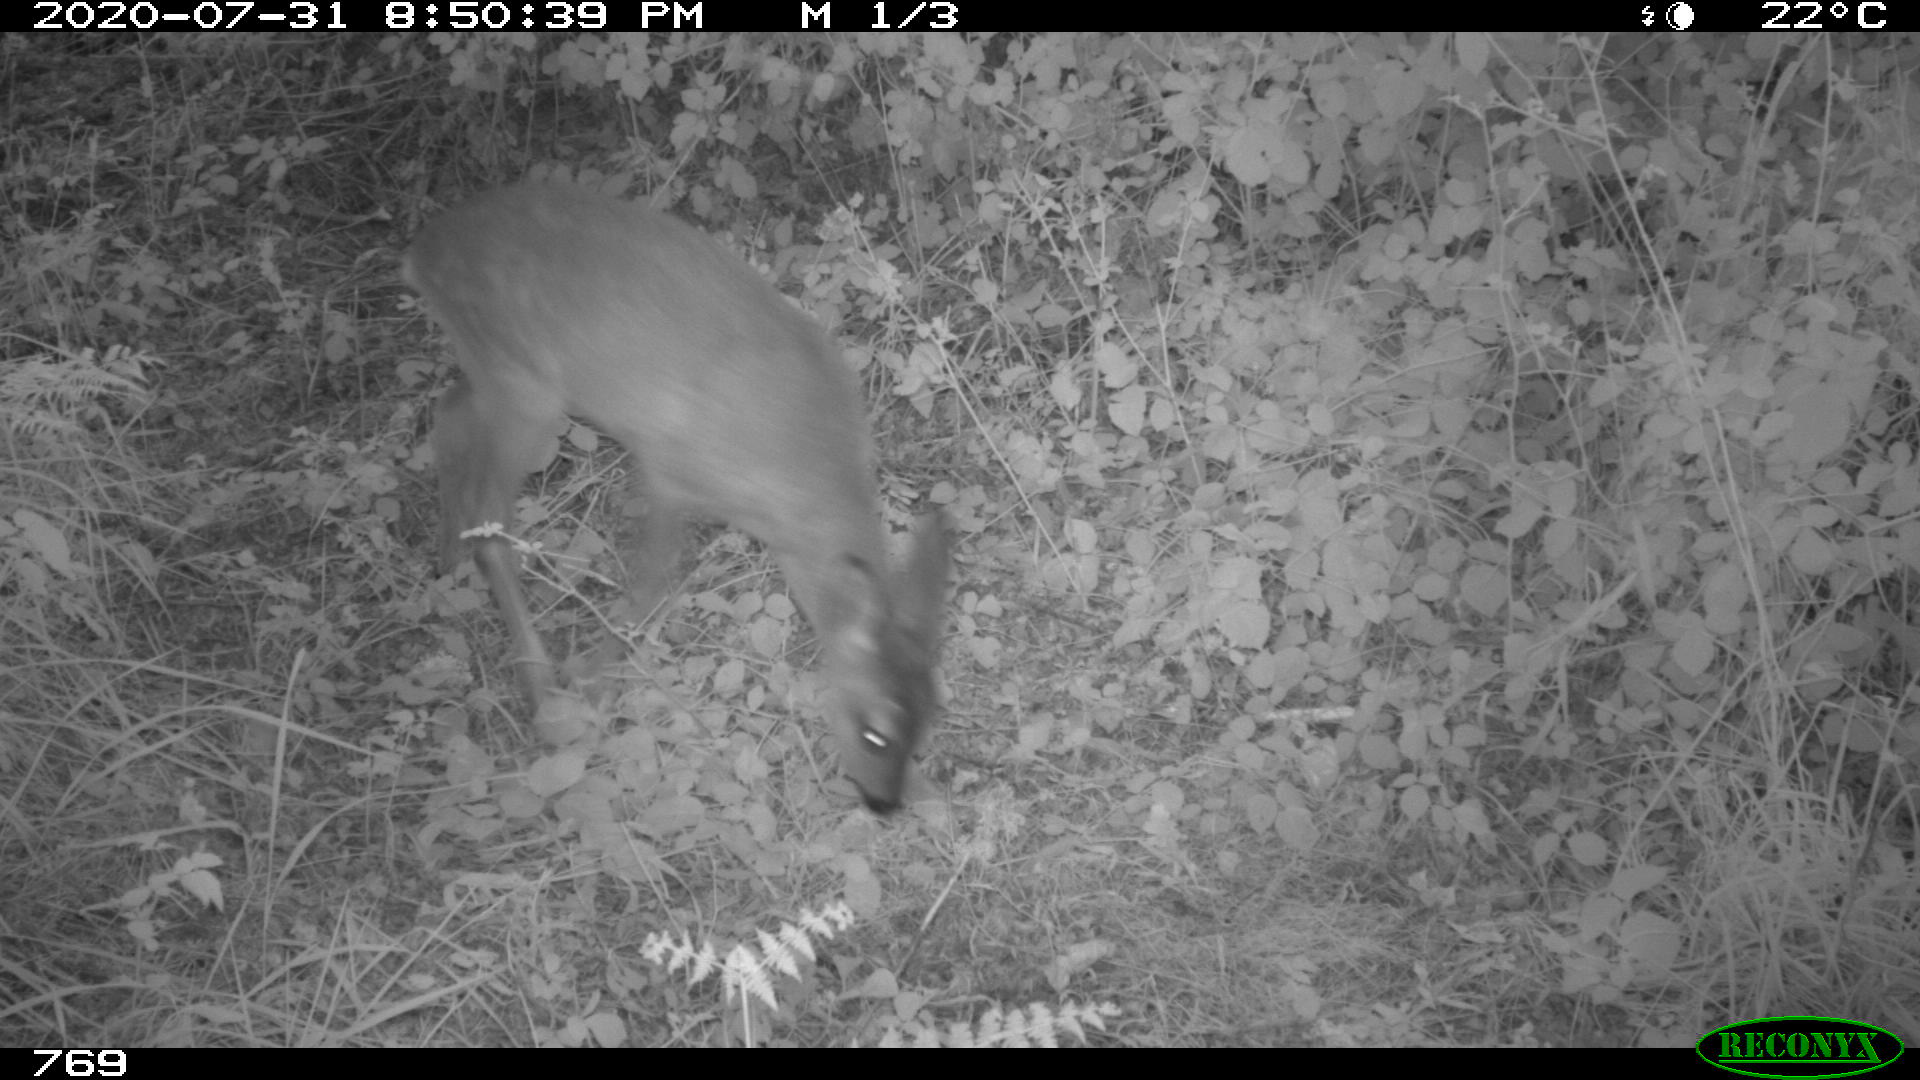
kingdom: Animalia
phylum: Chordata
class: Mammalia
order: Artiodactyla
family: Cervidae
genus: Capreolus
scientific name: Capreolus capreolus
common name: Western roe deer
